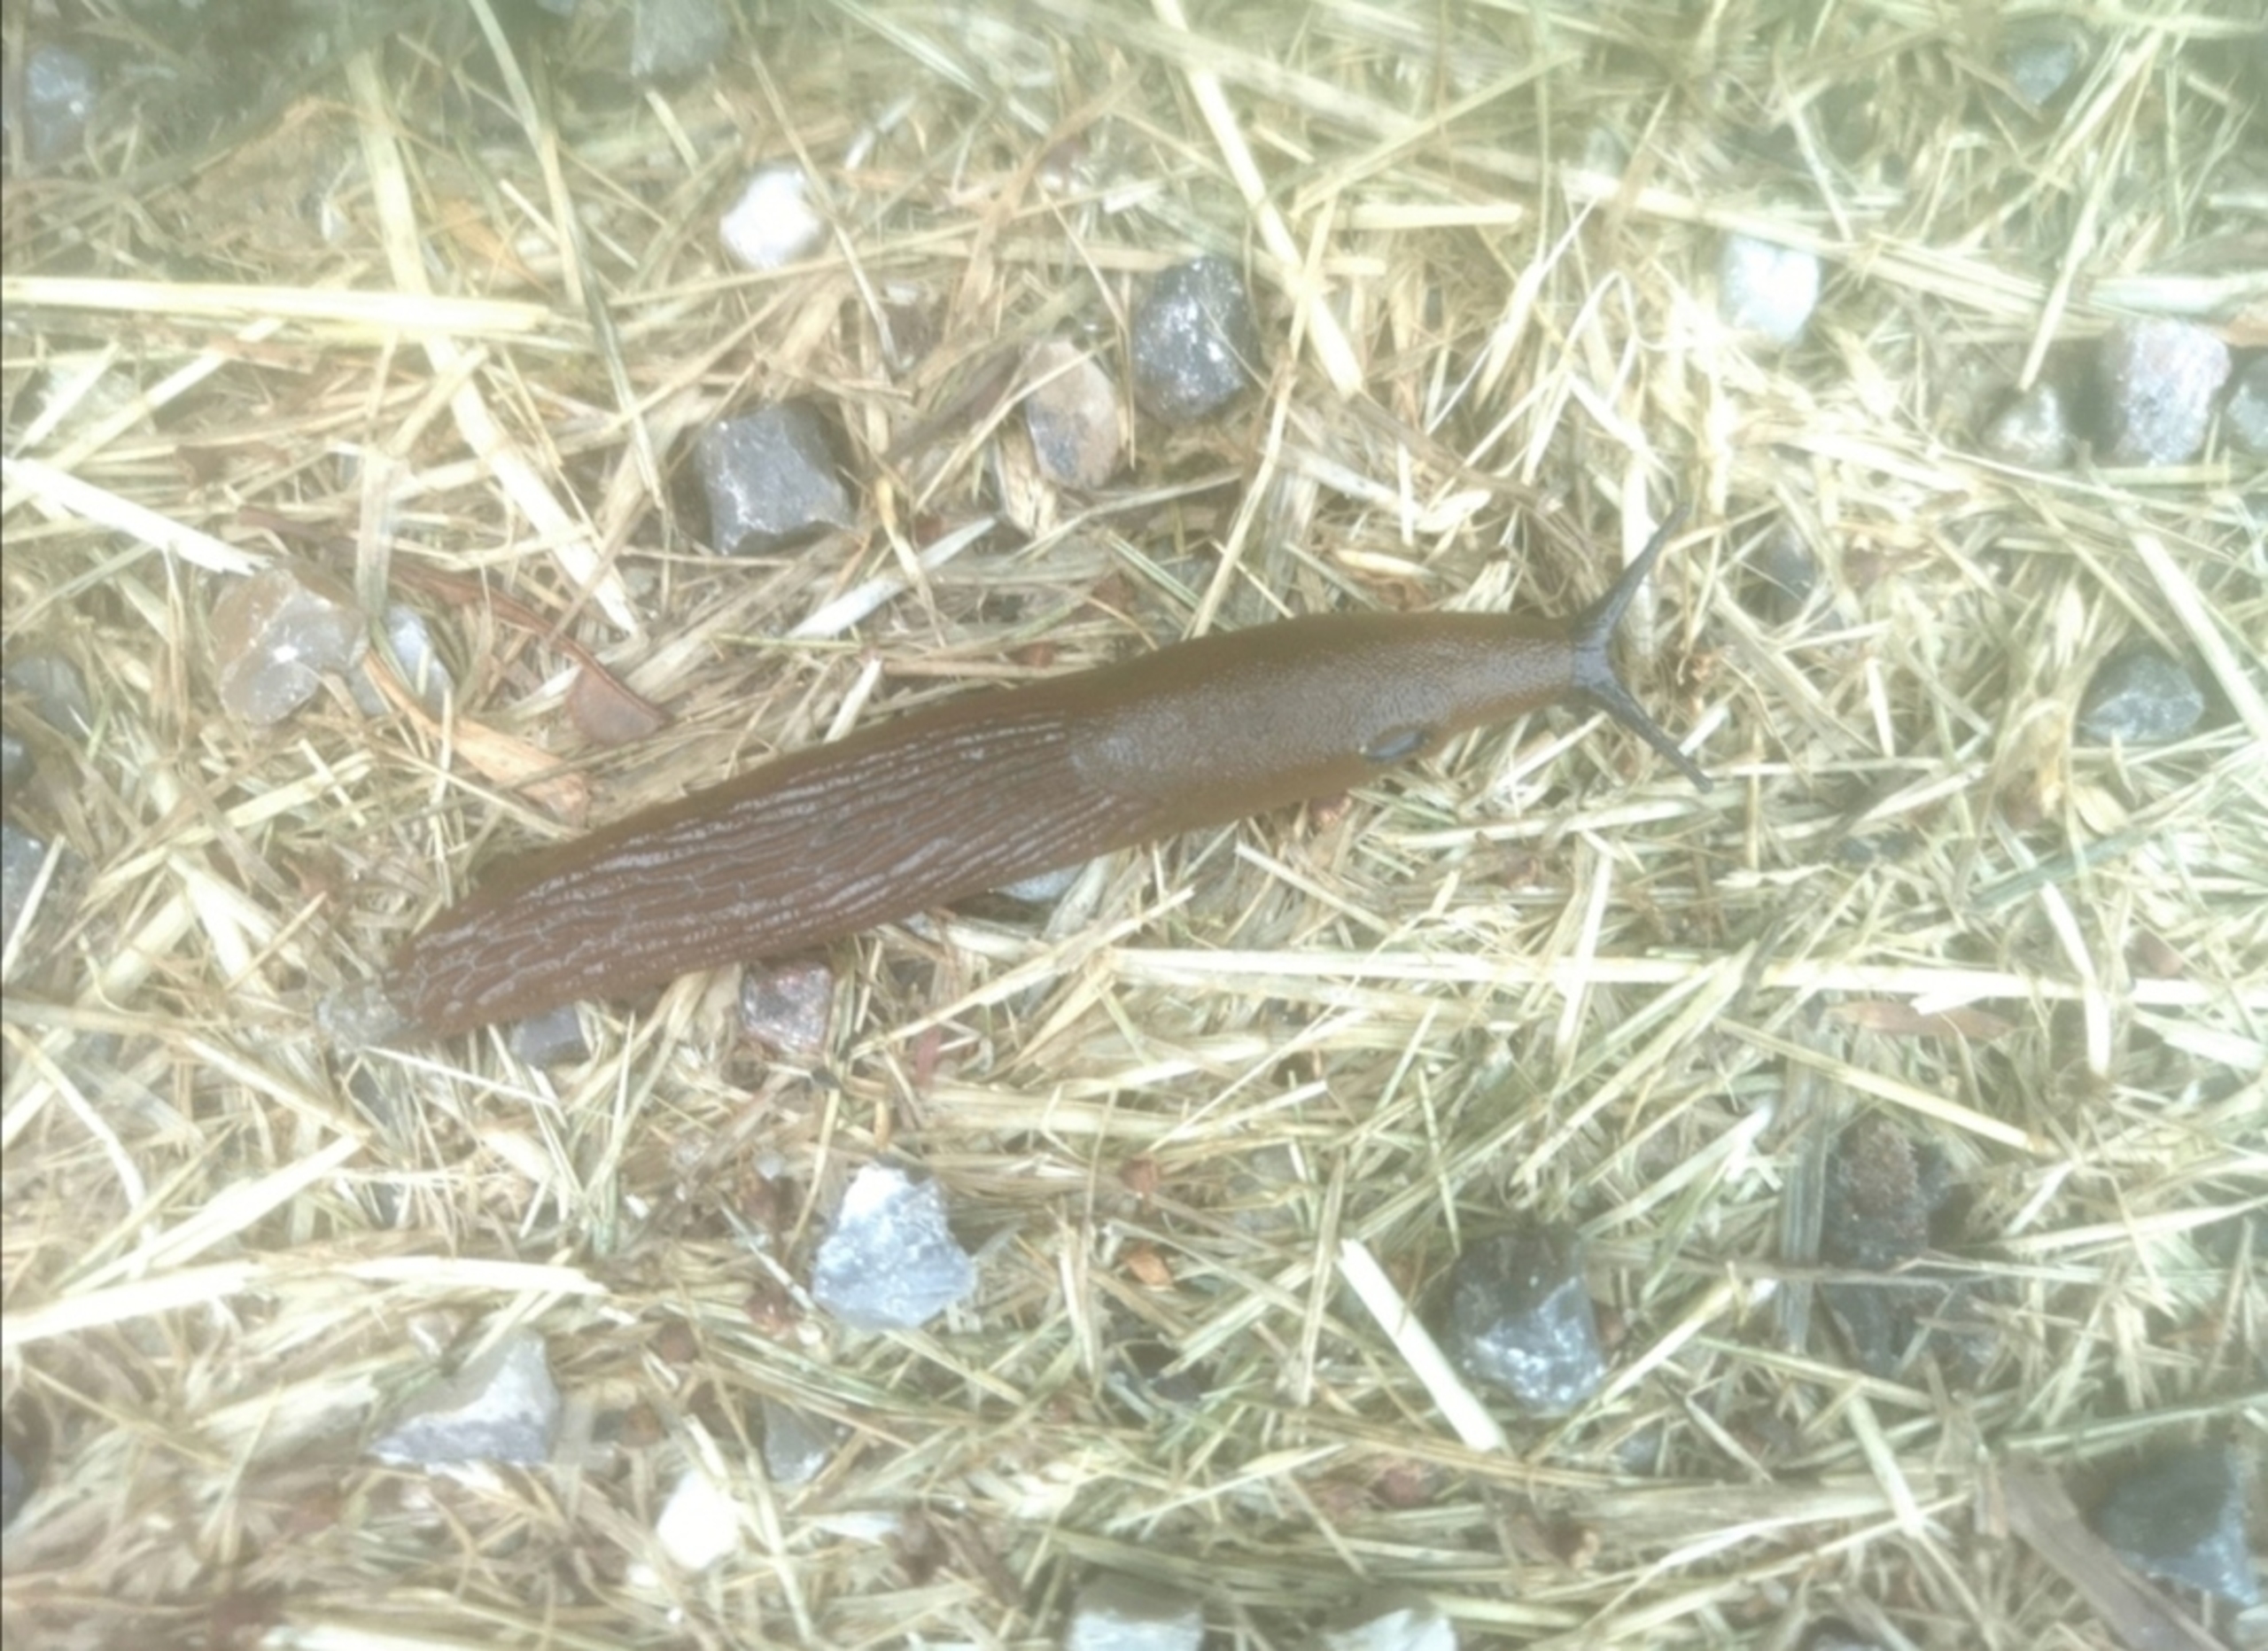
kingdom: Animalia
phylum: Mollusca
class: Gastropoda
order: Stylommatophora
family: Arionidae
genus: Arion
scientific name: Arion vulgaris
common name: Iberisk skovsnegl
